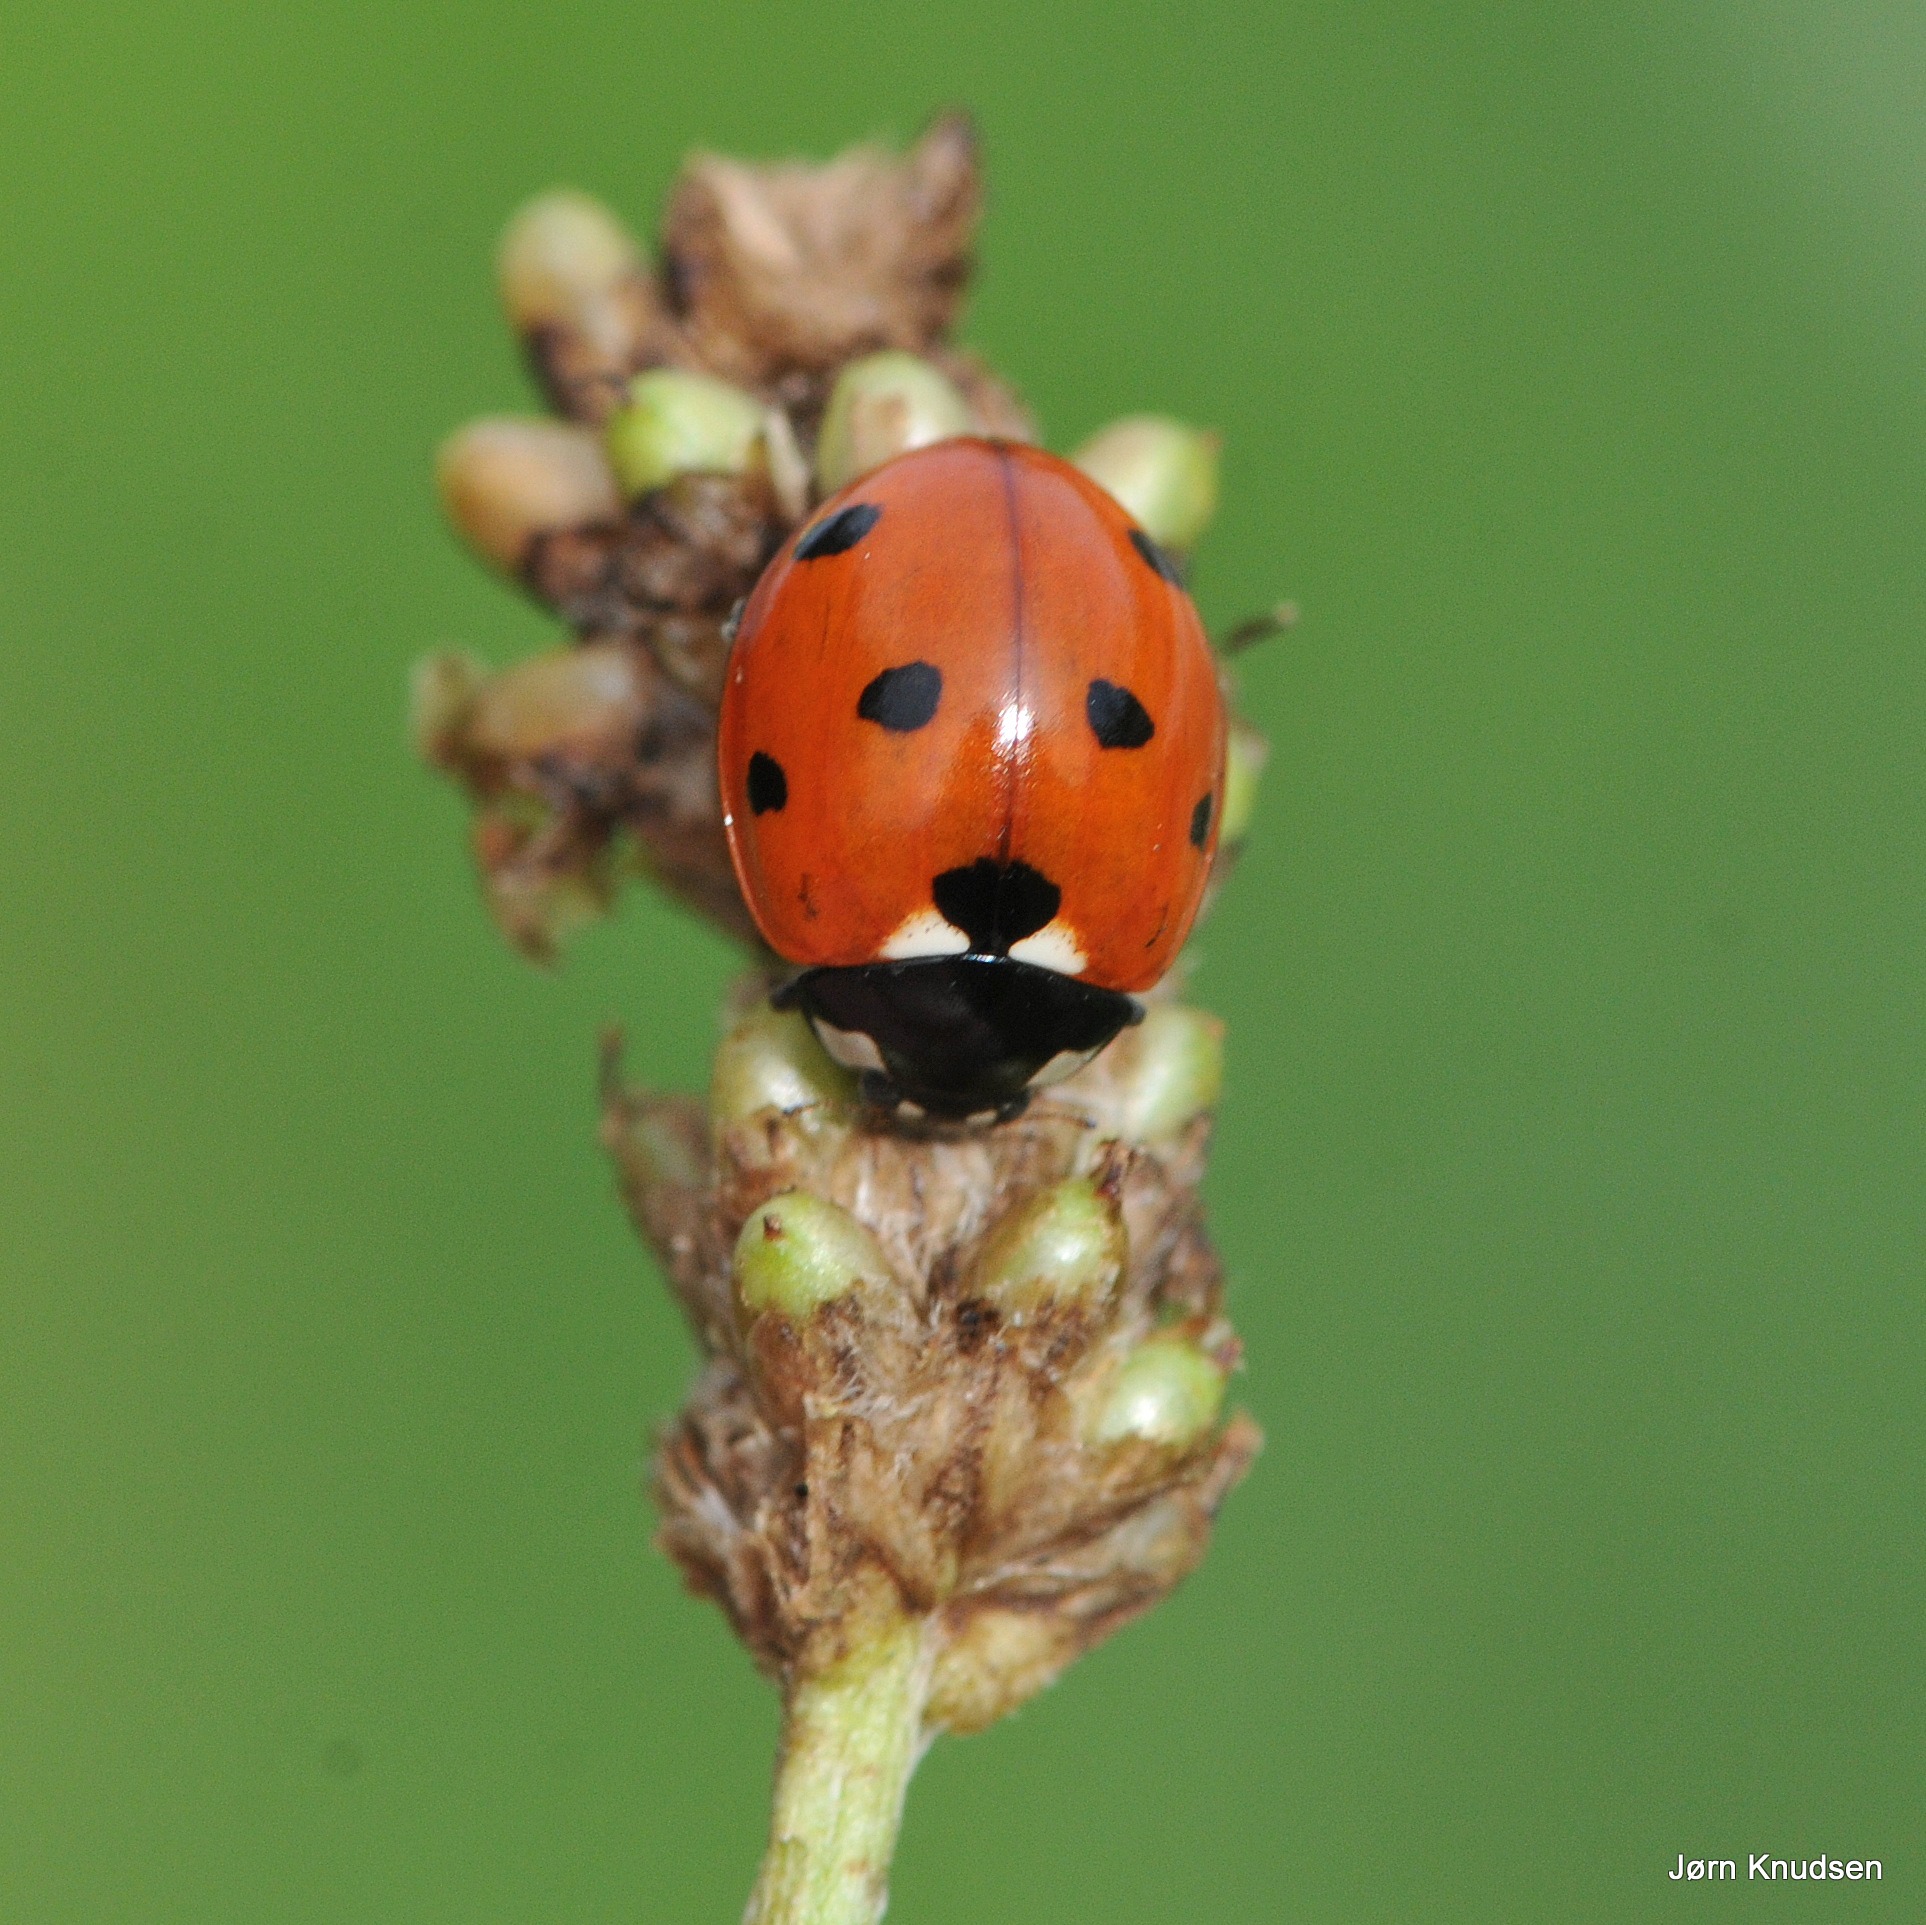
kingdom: Animalia
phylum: Arthropoda
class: Insecta
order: Coleoptera
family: Coccinellidae
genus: Coccinella
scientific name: Coccinella septempunctata
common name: Syvplettet mariehøne
